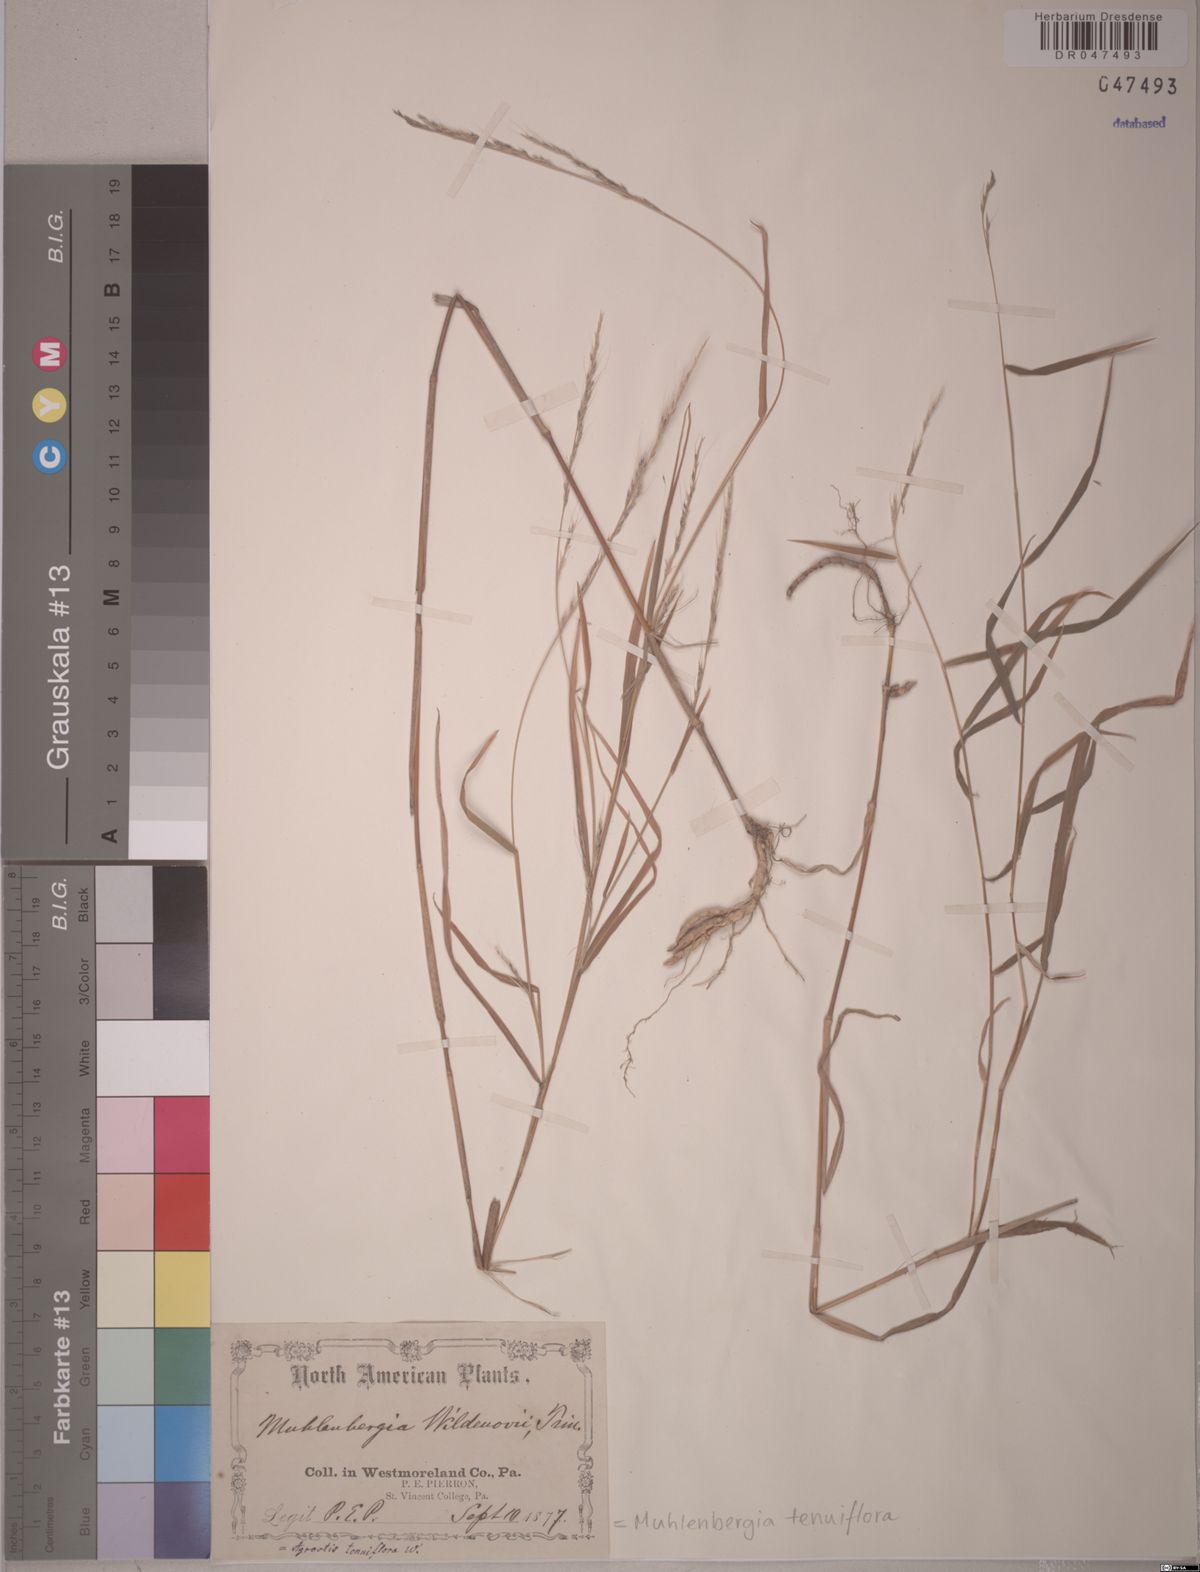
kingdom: Plantae
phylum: Tracheophyta
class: Liliopsida
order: Poales
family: Poaceae
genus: Muhlenbergia
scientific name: Muhlenbergia tenuiflora
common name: Slender muhly
